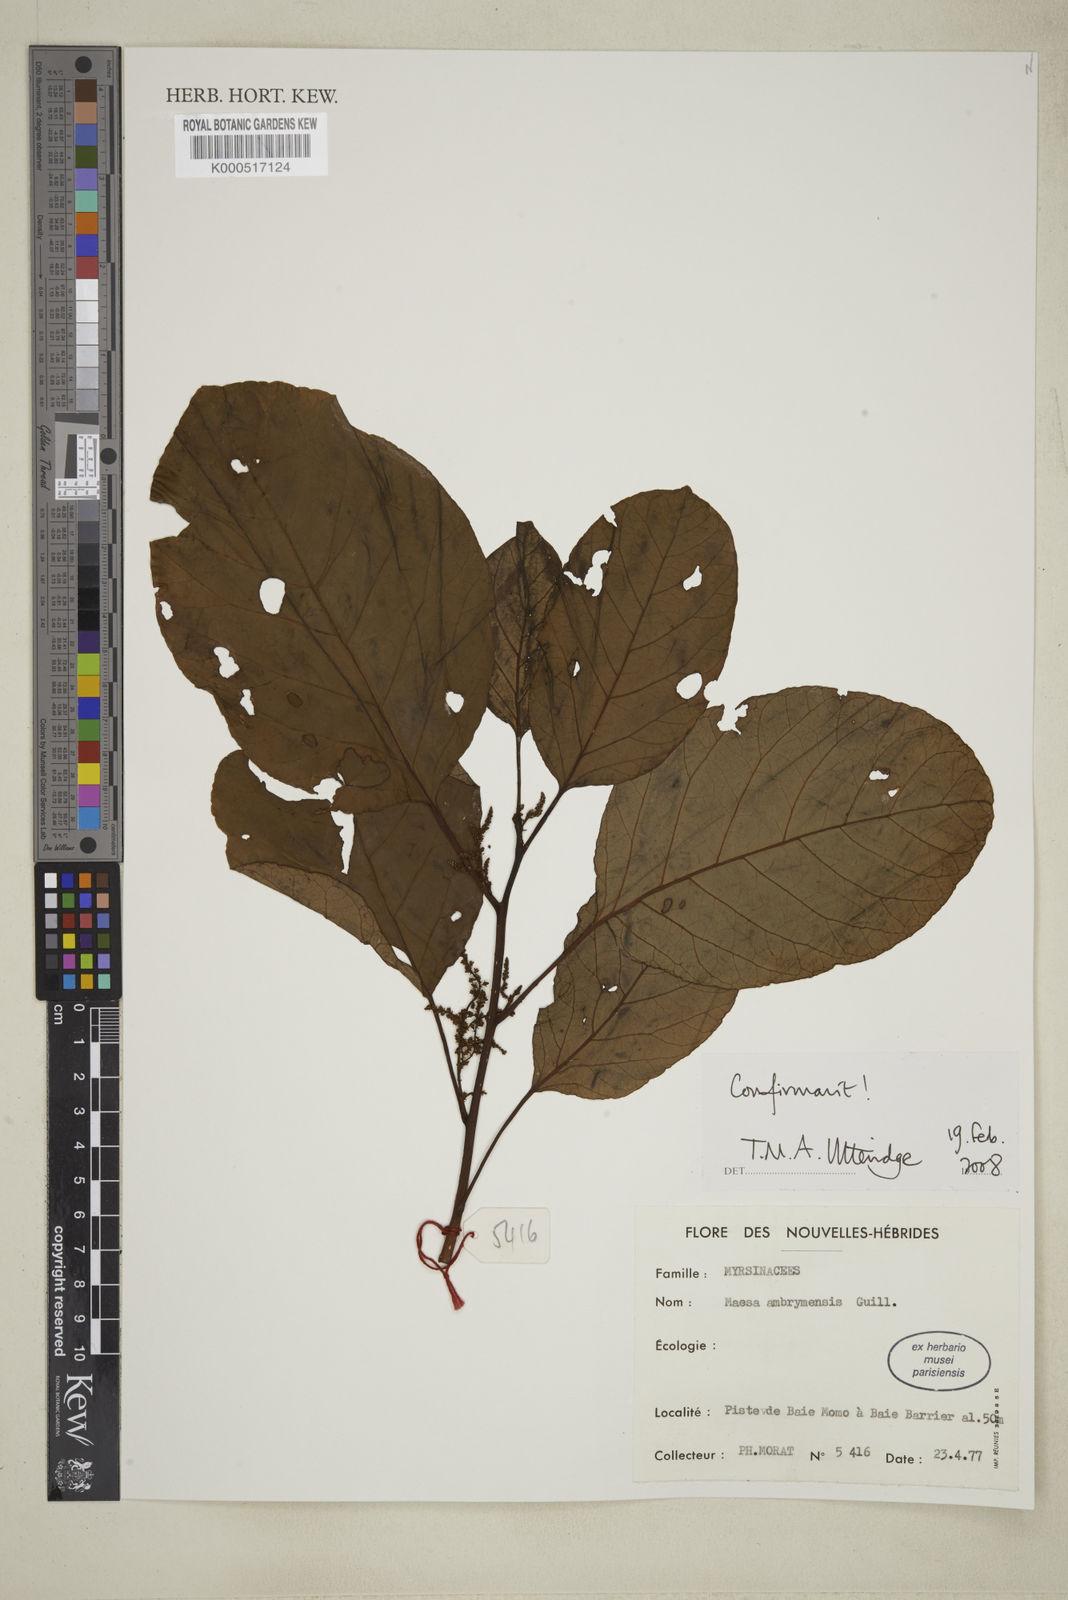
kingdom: Plantae
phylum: Tracheophyta
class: Magnoliopsida
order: Ericales
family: Primulaceae
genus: Maesa
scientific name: Maesa ambrymensis
